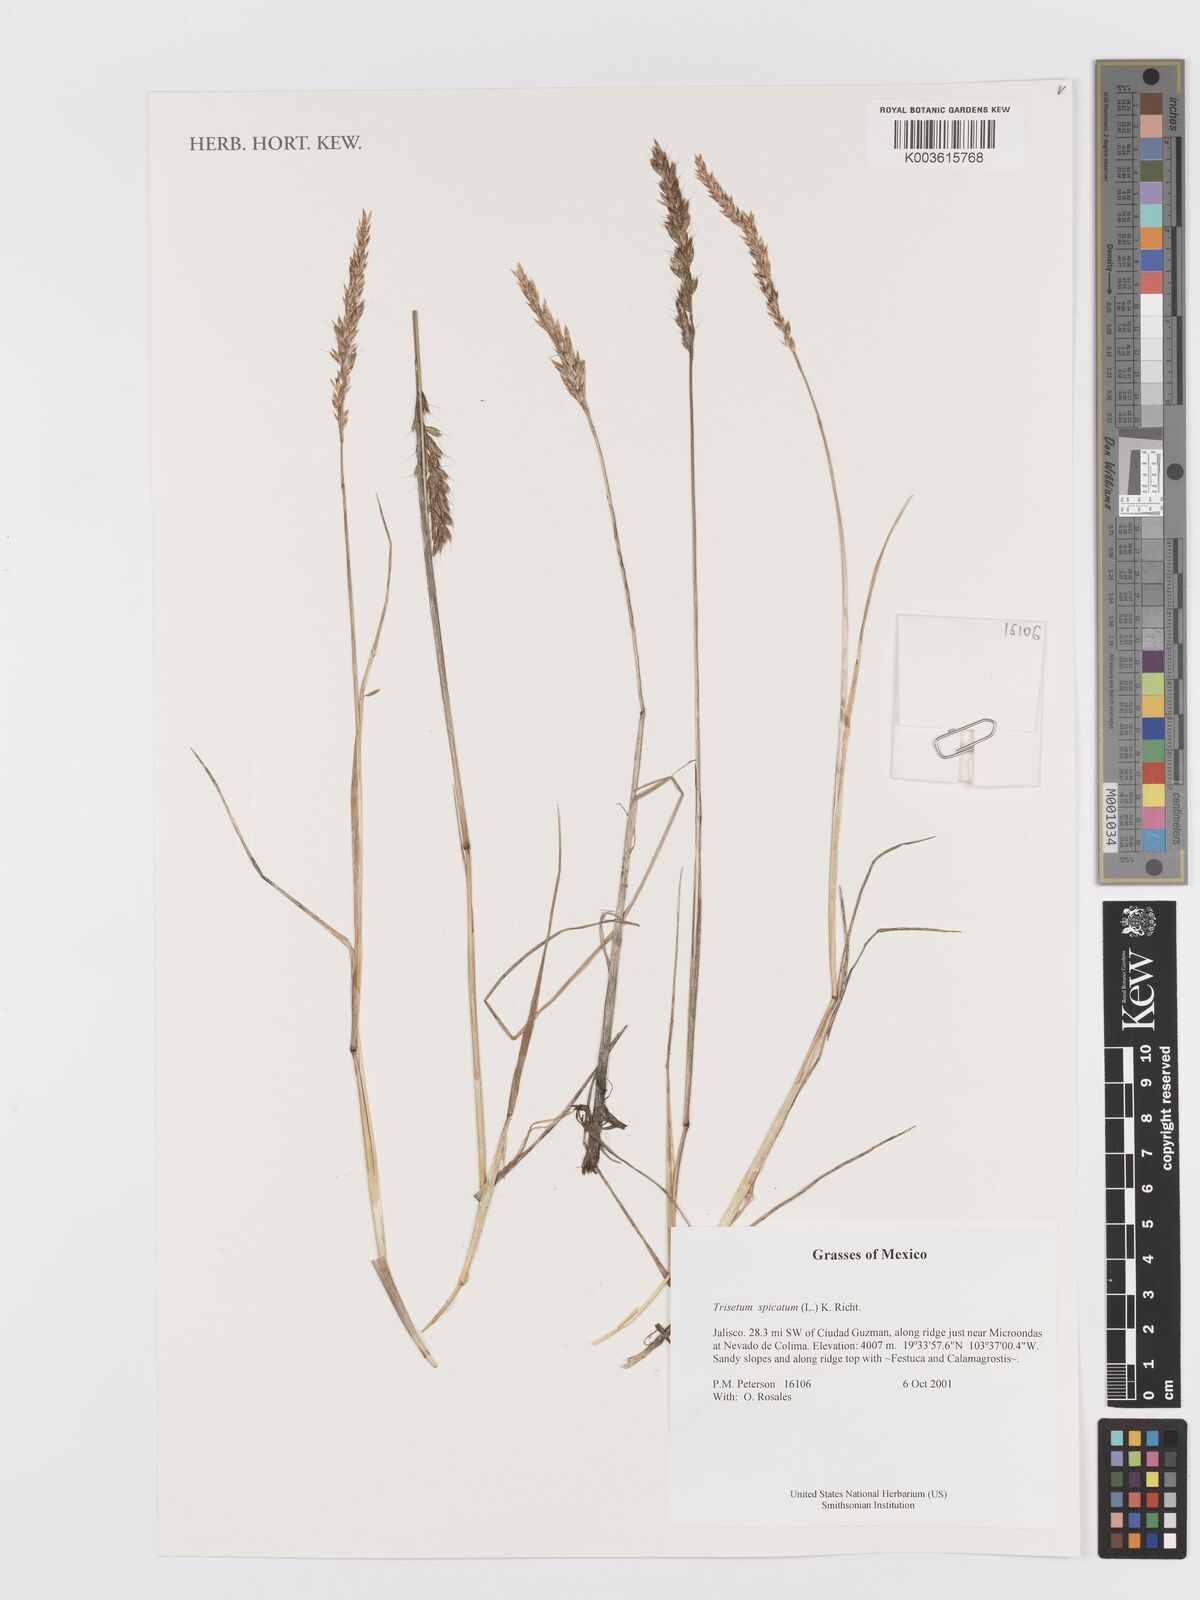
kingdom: Plantae
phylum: Tracheophyta
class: Liliopsida
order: Poales
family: Poaceae
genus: Koeleria
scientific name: Koeleria spicata
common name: Mountain trisetum
